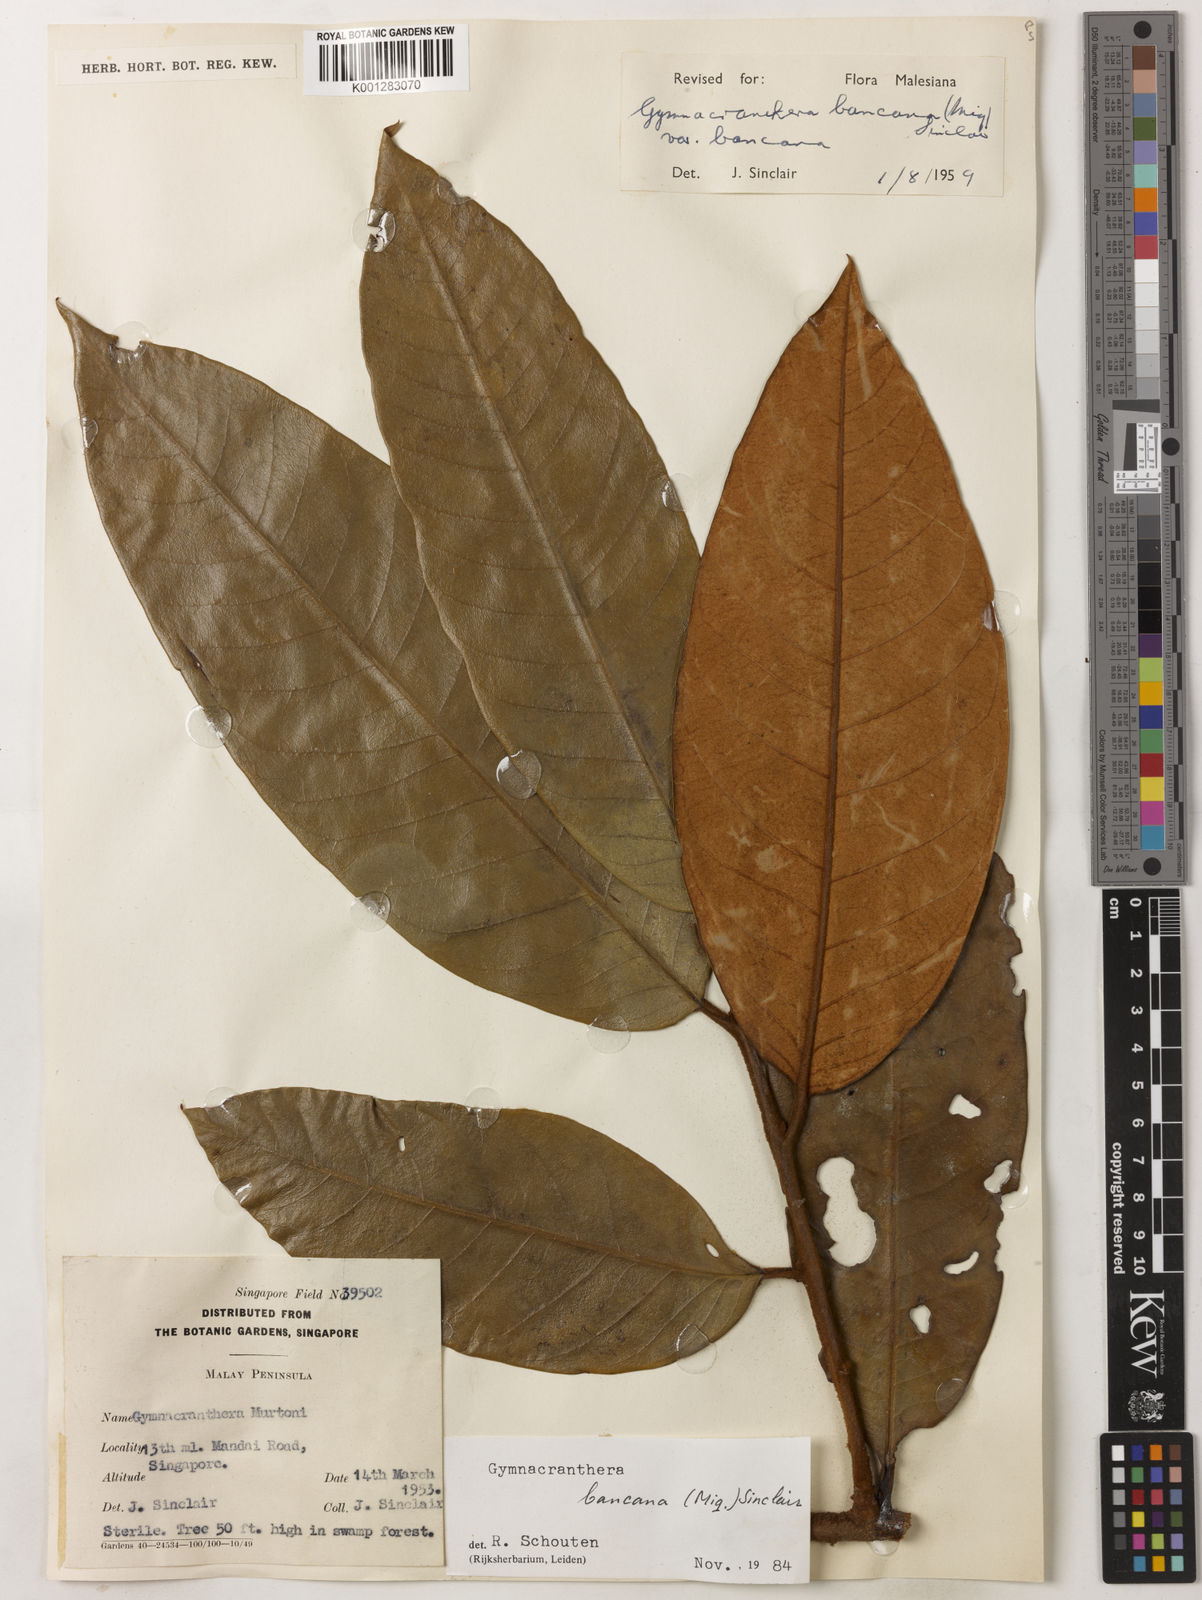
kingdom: Plantae
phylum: Tracheophyta
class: Magnoliopsida
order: Magnoliales
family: Myristicaceae
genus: Gymnacranthera
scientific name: Gymnacranthera bancana
